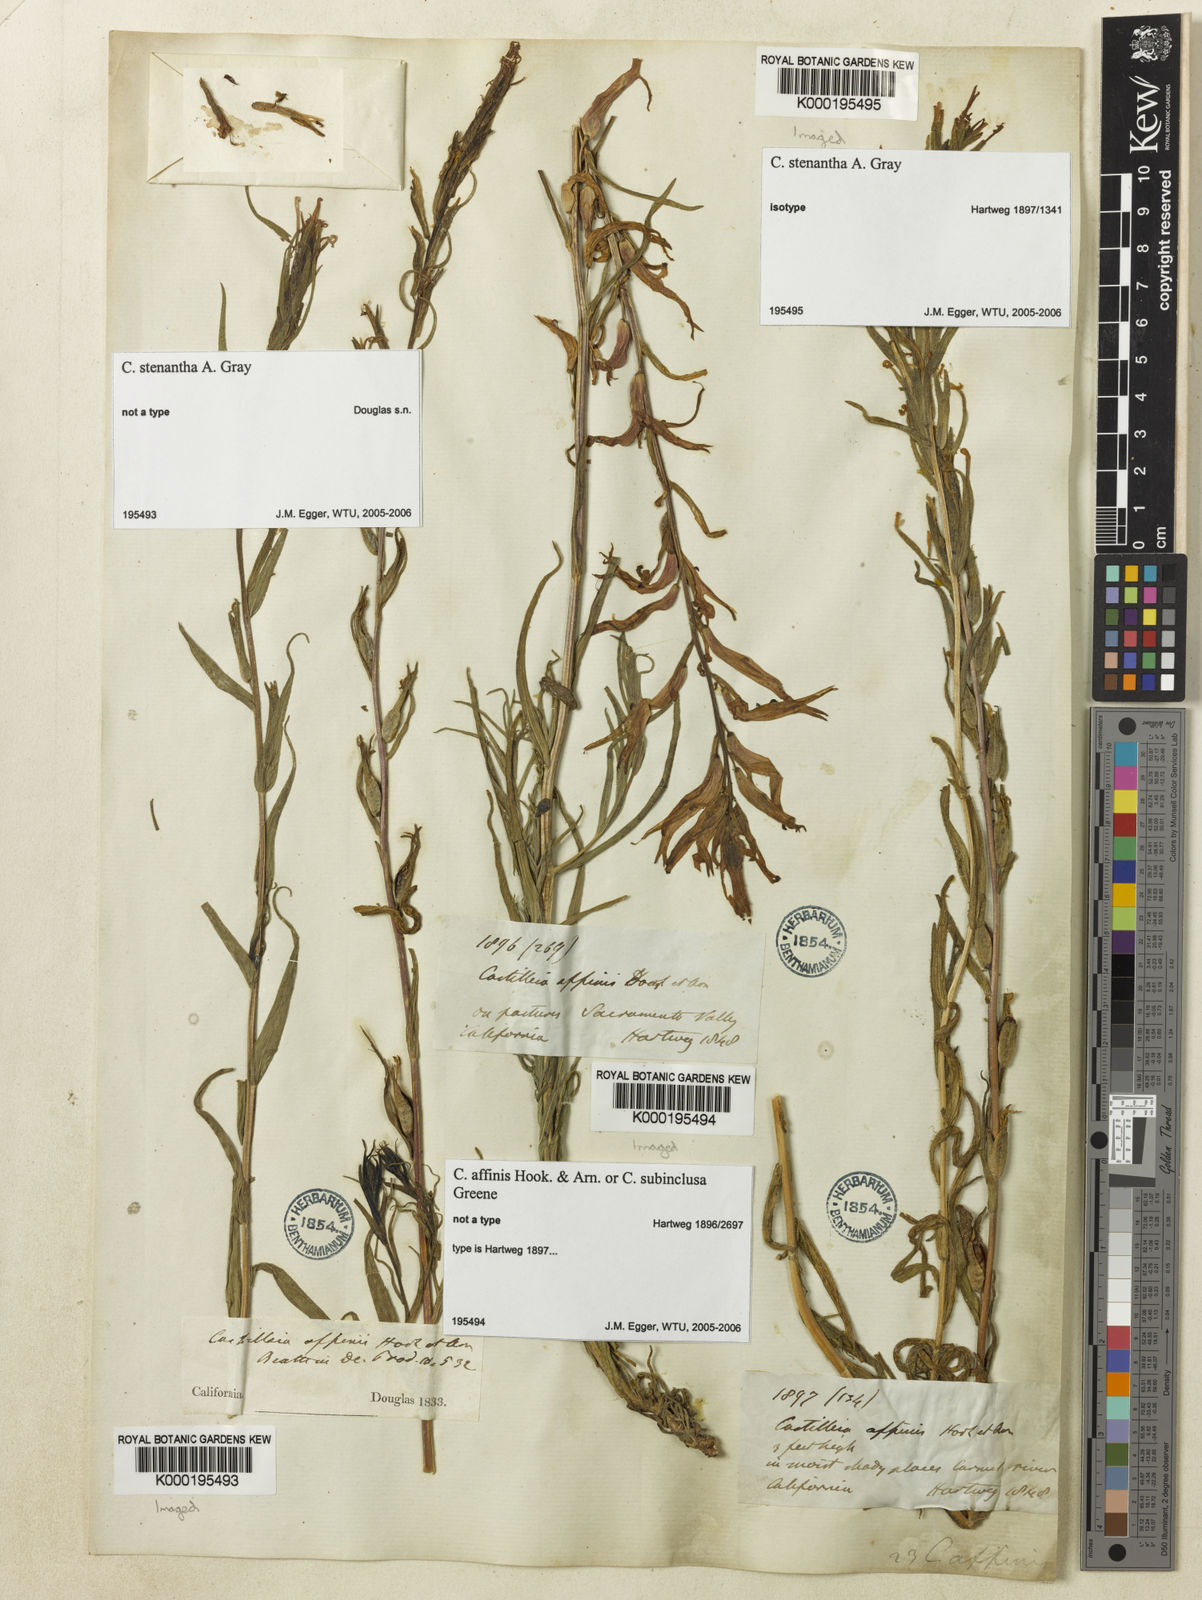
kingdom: Plantae
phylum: Tracheophyta
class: Magnoliopsida
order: Lamiales
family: Orobanchaceae
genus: Castilleja
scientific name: Castilleja minor
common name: Seep paintbrush
